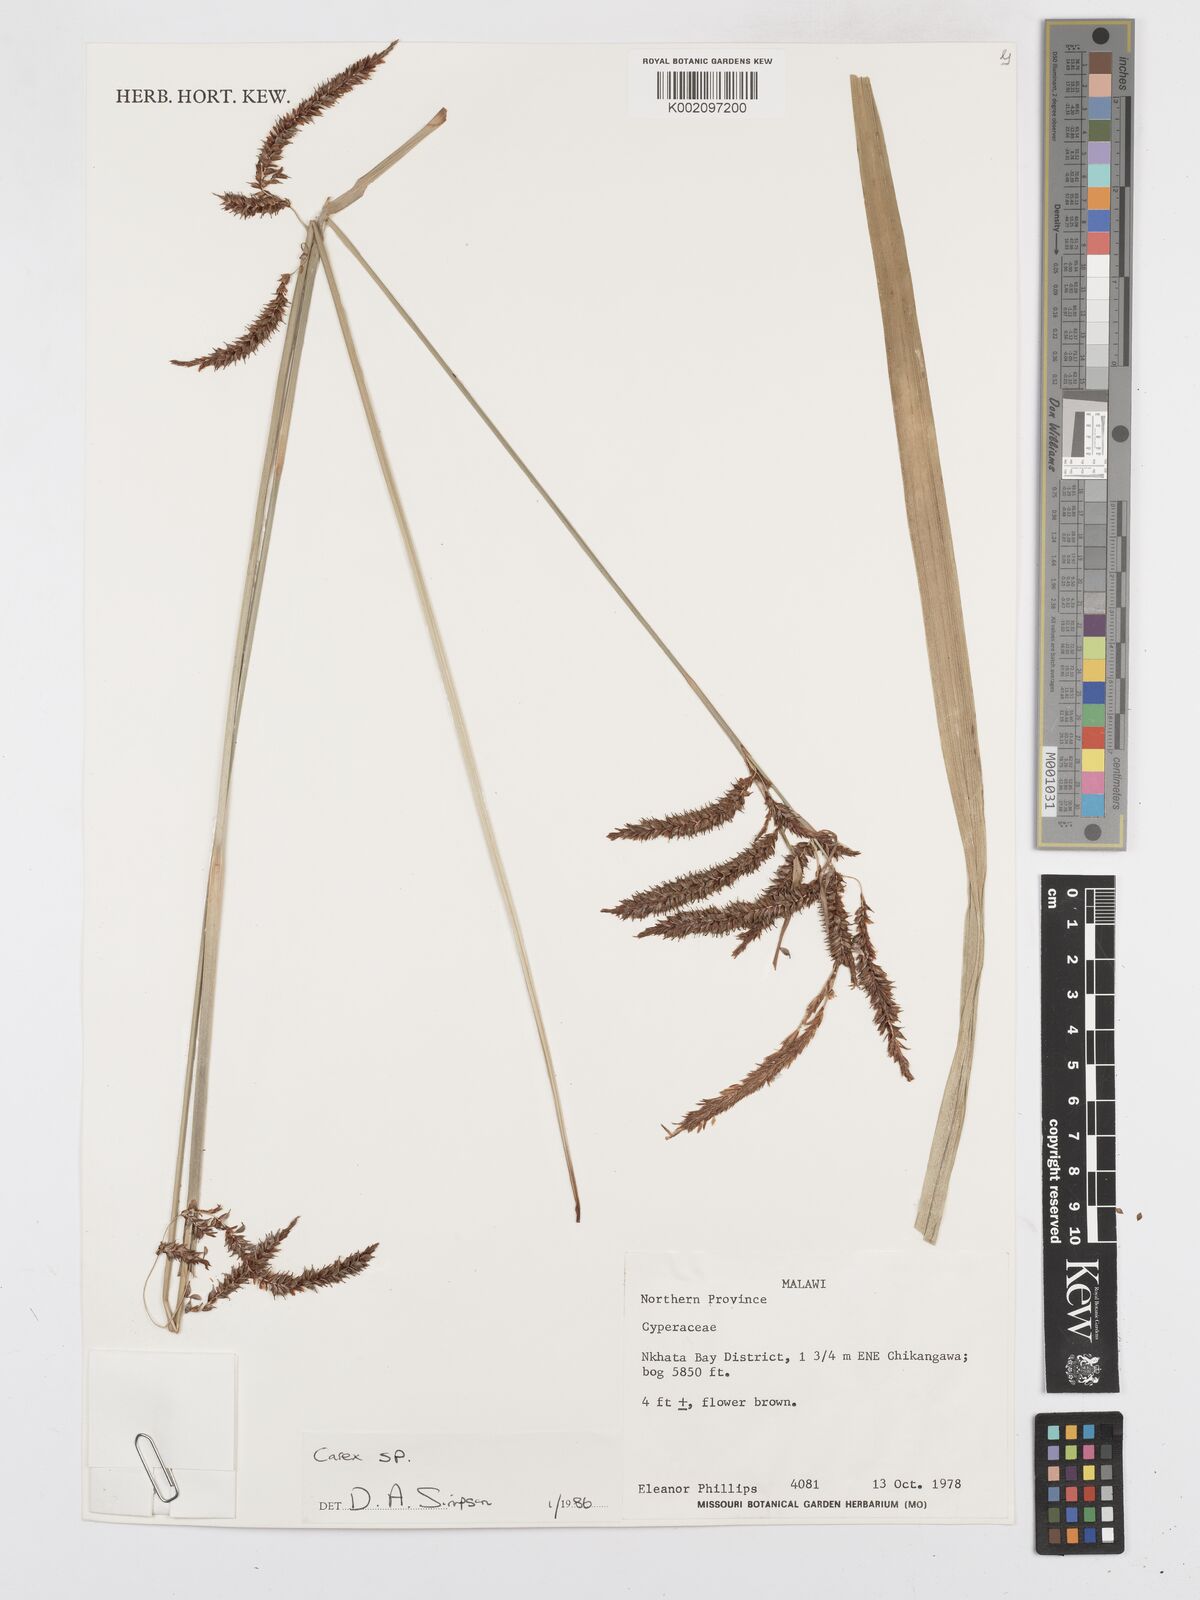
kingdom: Plantae
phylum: Tracheophyta
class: Liliopsida
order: Poales
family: Cyperaceae
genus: Carex
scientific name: Carex
